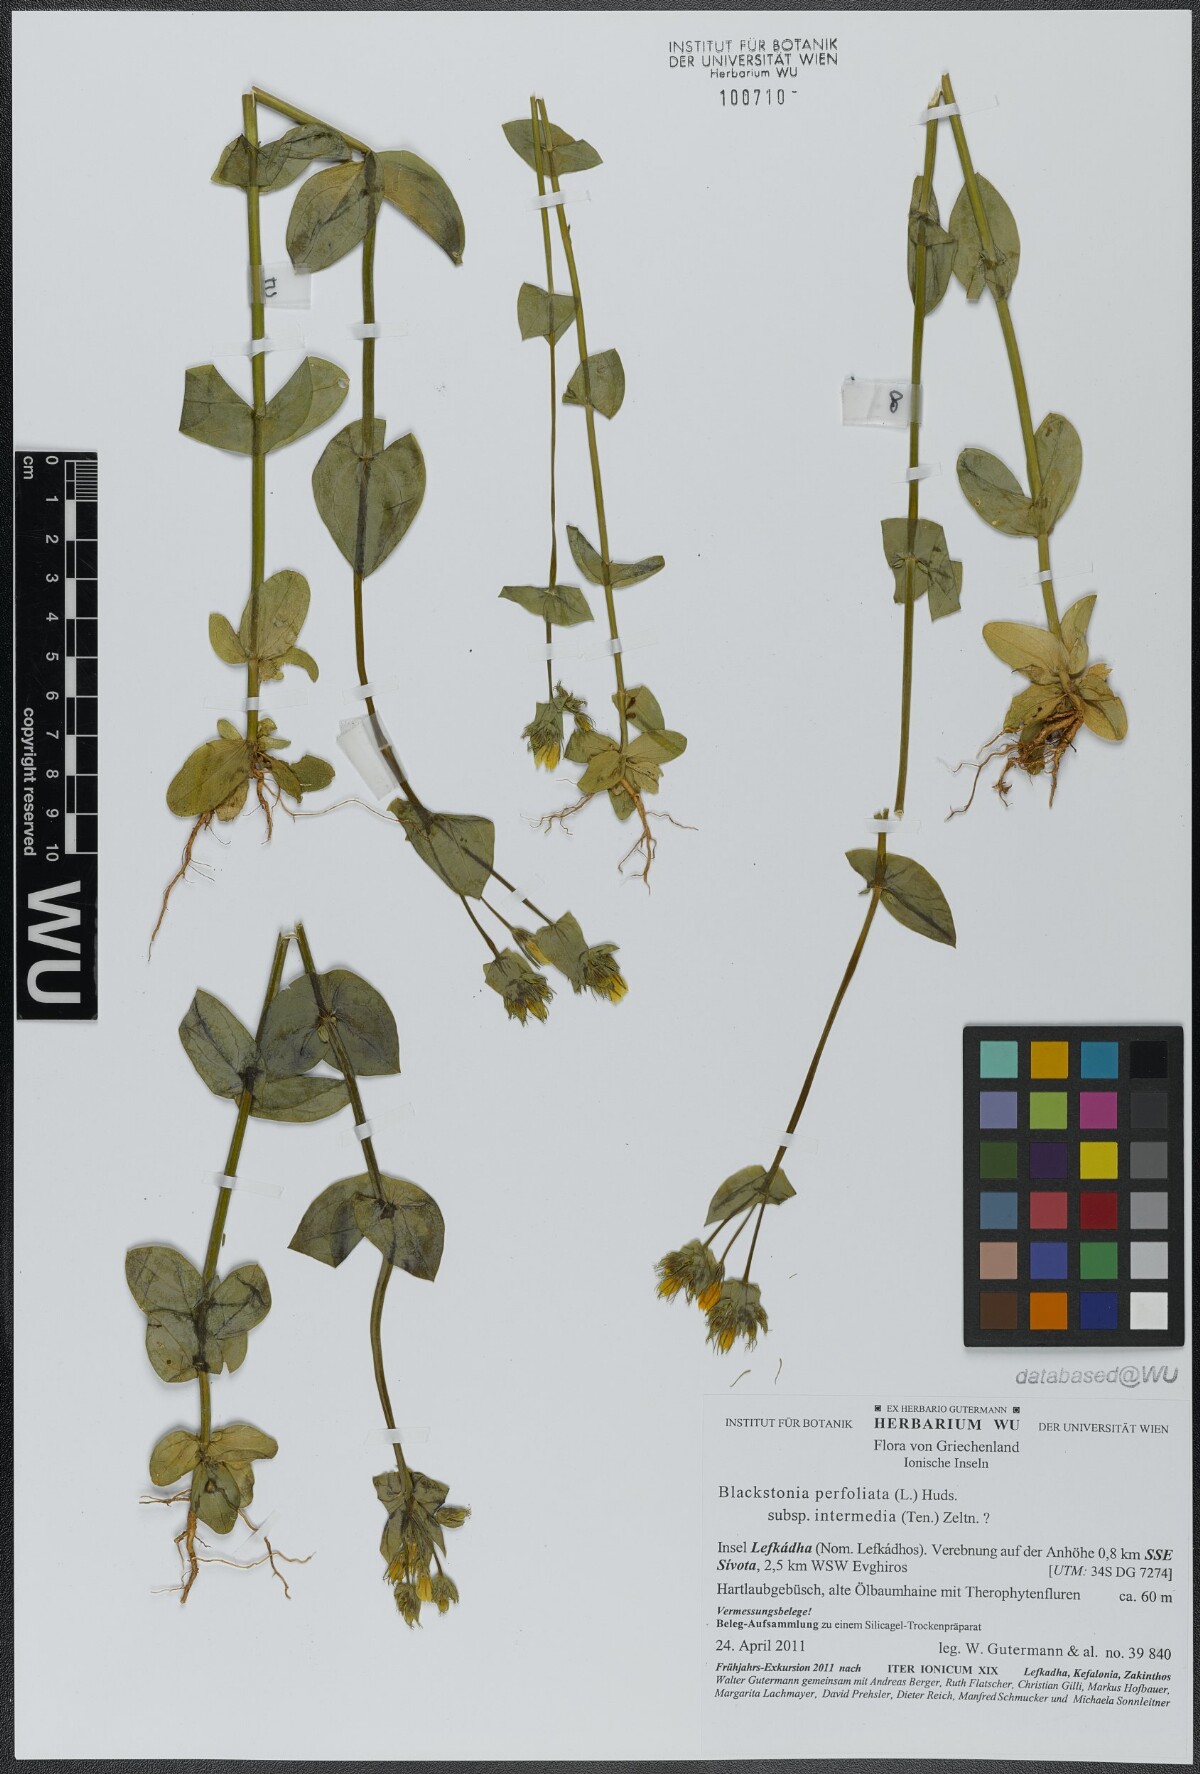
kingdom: Plantae
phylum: Tracheophyta
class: Magnoliopsida
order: Gentianales
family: Gentianaceae
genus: Blackstonia
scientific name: Blackstonia perfoliata
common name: Yellow-wort
